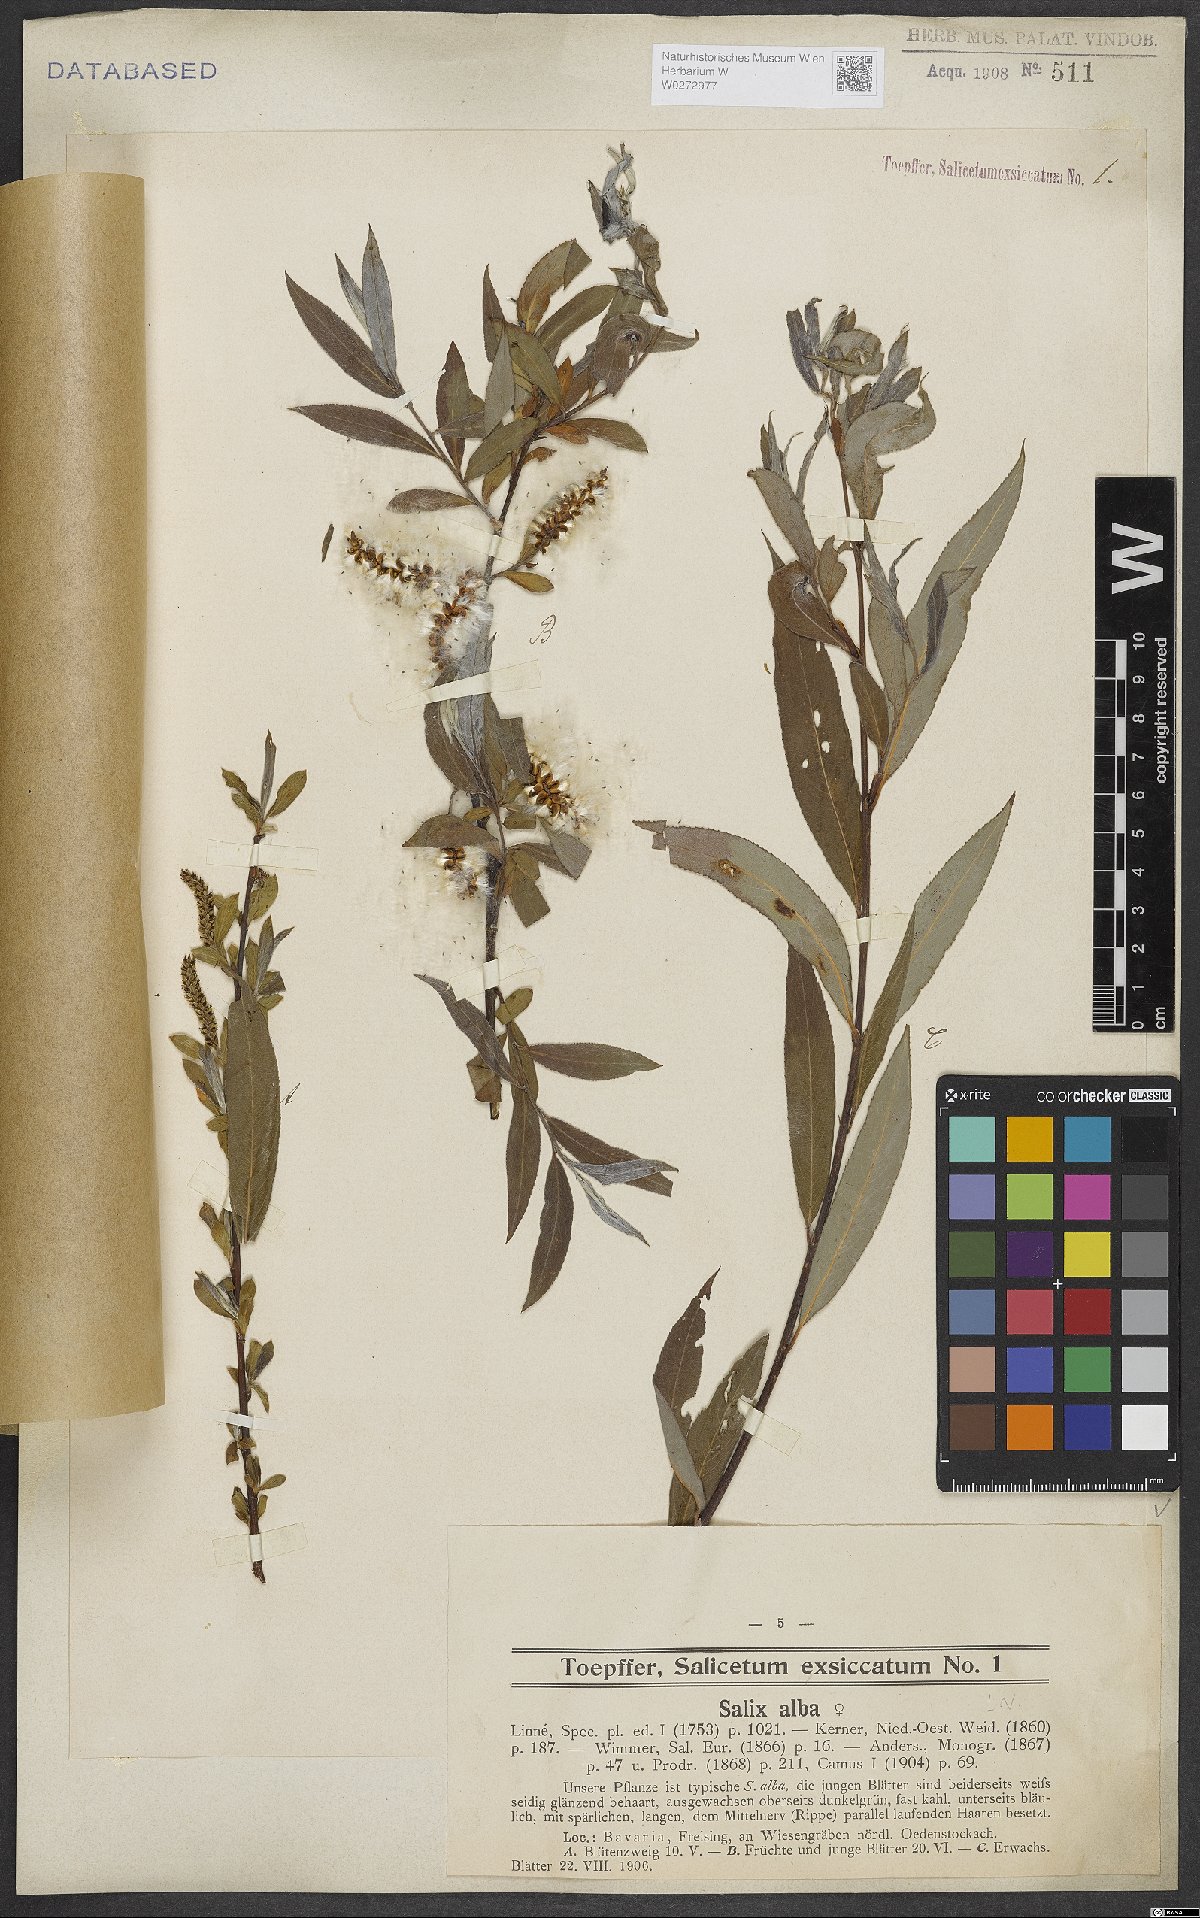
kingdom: Plantae
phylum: Tracheophyta
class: Magnoliopsida
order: Malpighiales
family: Salicaceae
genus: Salix
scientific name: Salix alba
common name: White willow
